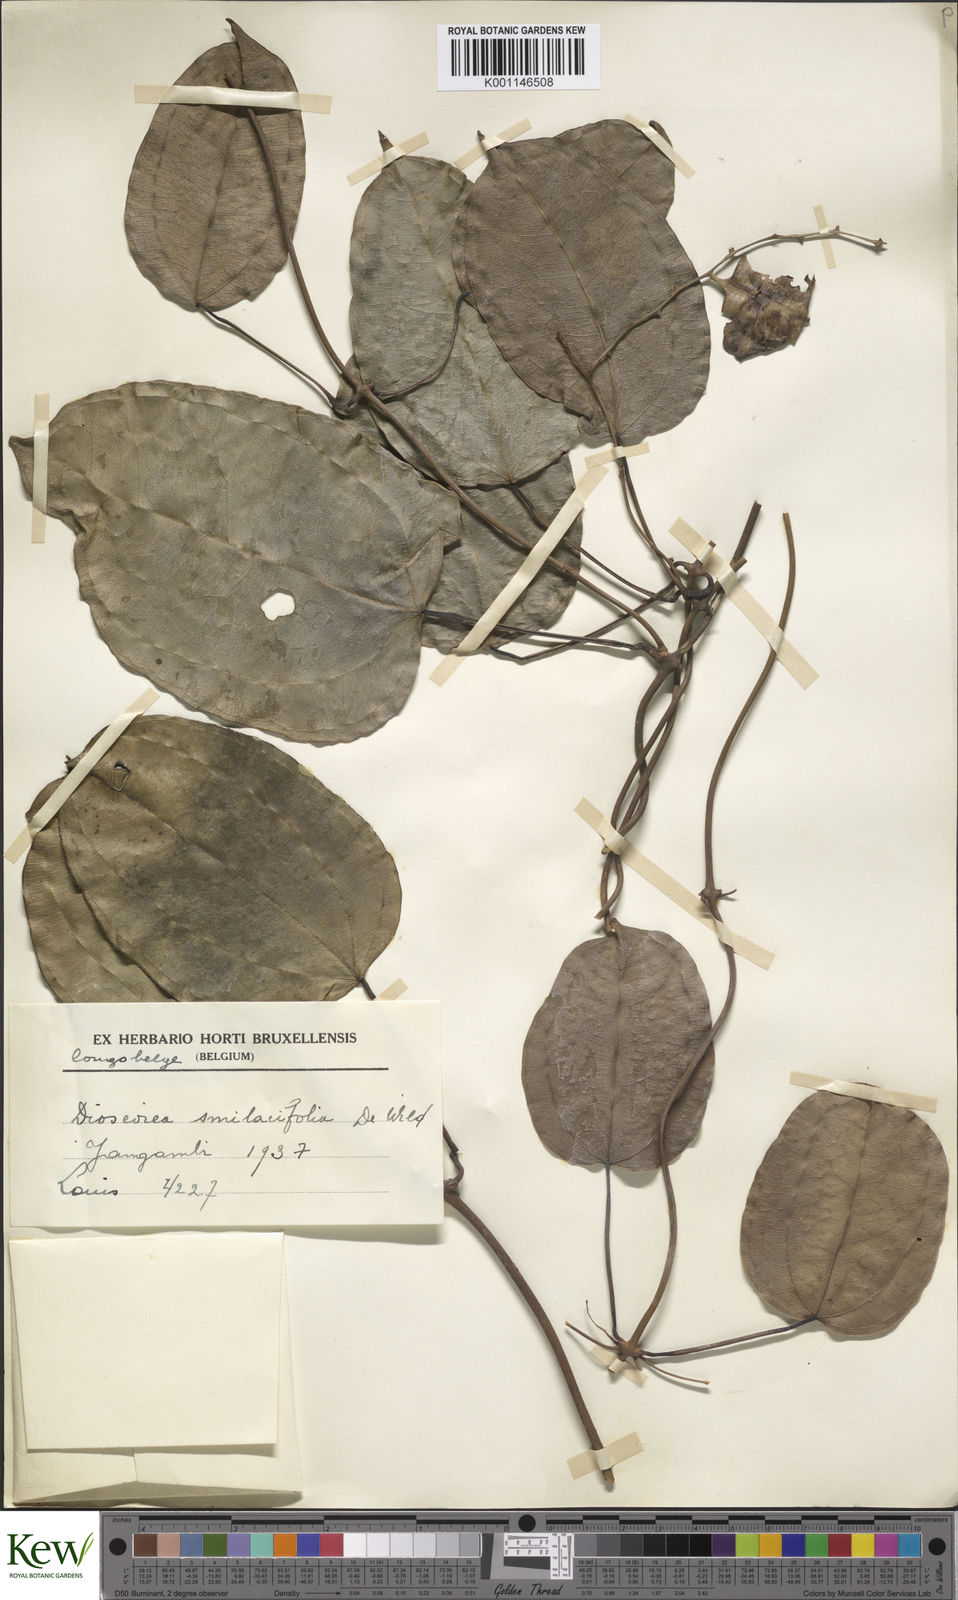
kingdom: Plantae
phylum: Tracheophyta
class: Liliopsida
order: Dioscoreales
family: Dioscoreaceae
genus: Dioscorea
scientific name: Dioscorea smilacifolia
